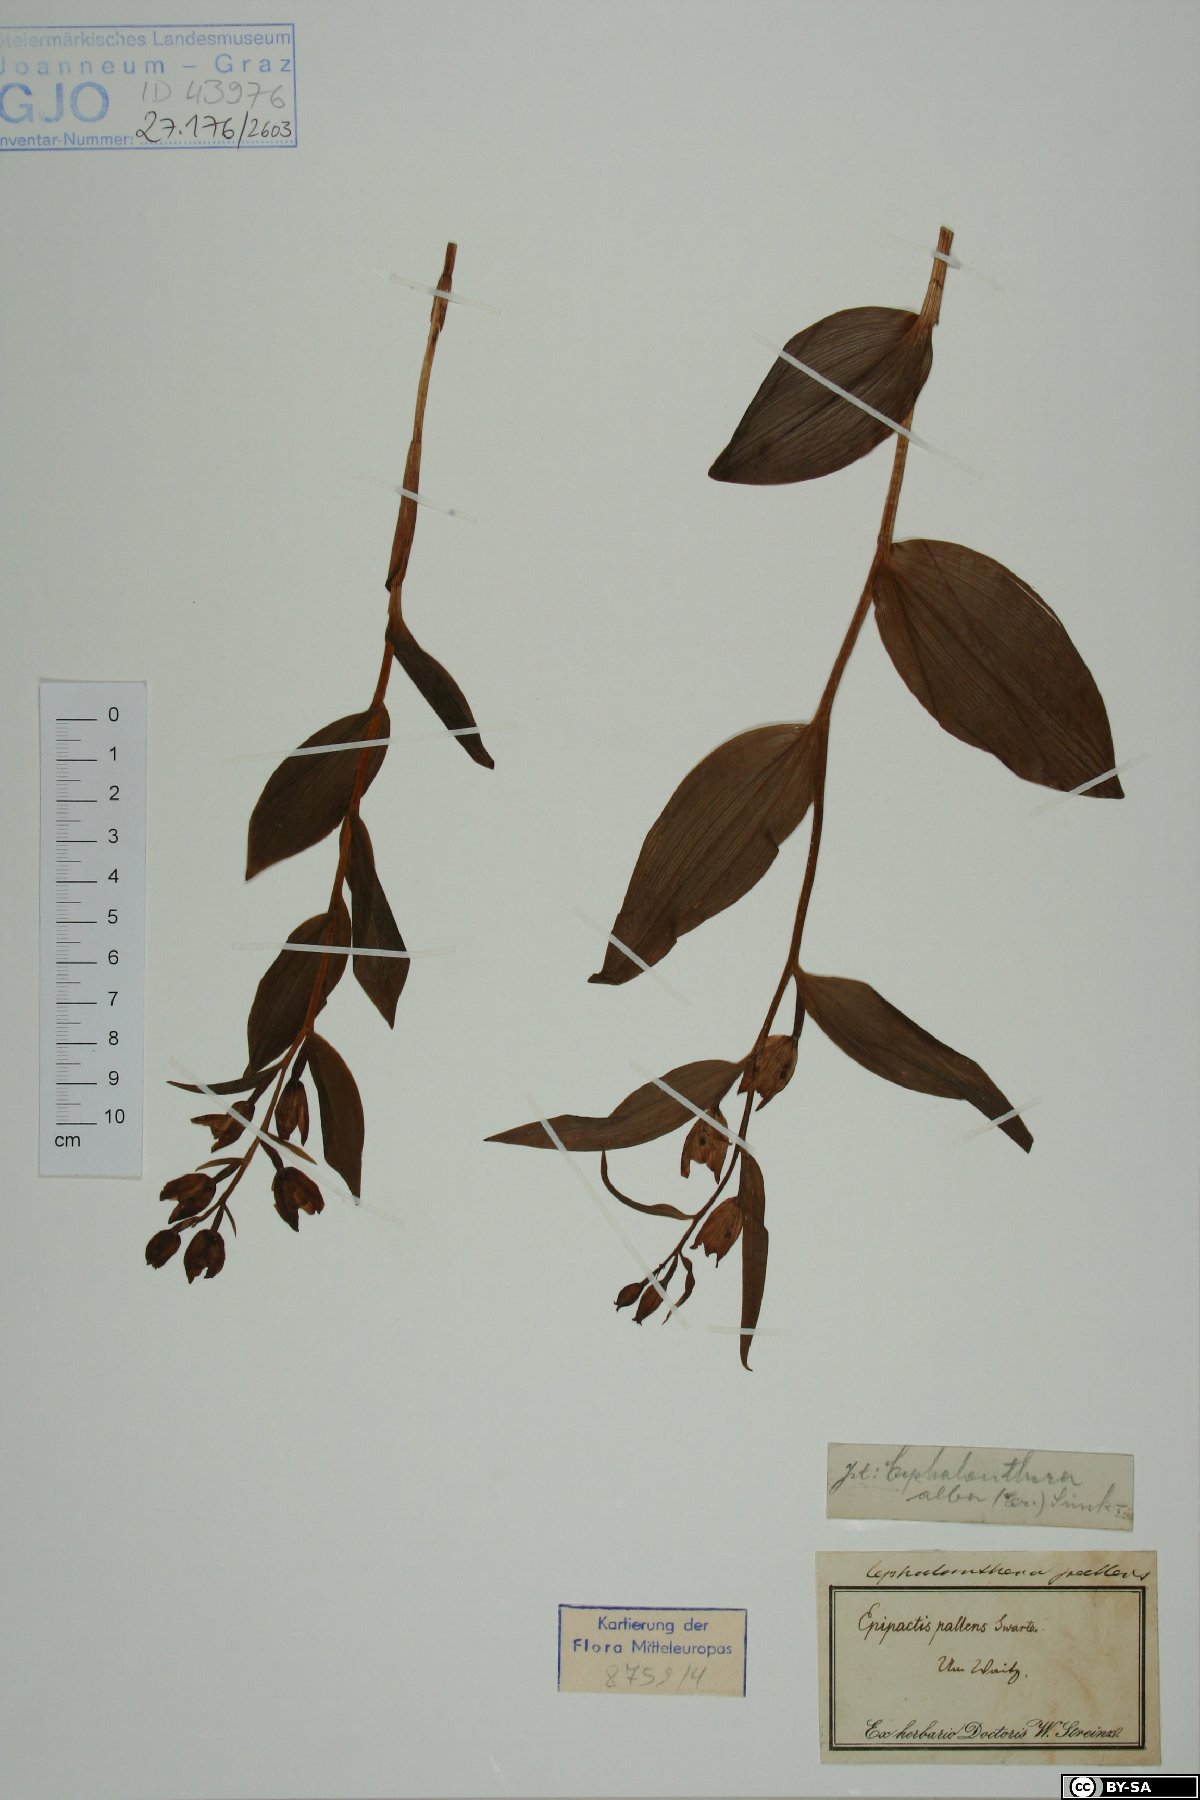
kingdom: Plantae
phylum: Tracheophyta
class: Liliopsida
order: Asparagales
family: Orchidaceae
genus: Cephalanthera
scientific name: Cephalanthera longifolia
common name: Narrow-leaved helleborine
